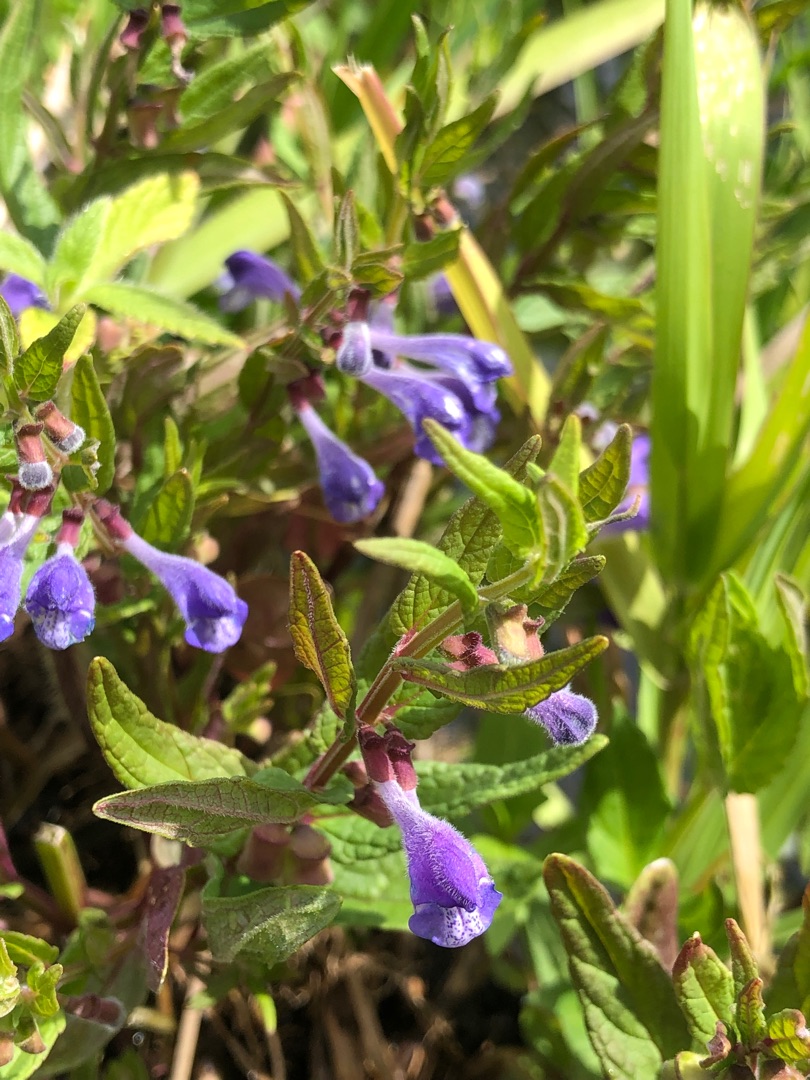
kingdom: Plantae
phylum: Tracheophyta
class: Magnoliopsida
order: Lamiales
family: Lamiaceae
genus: Scutellaria
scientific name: Scutellaria galericulata
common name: Almindelig skjolddrager
